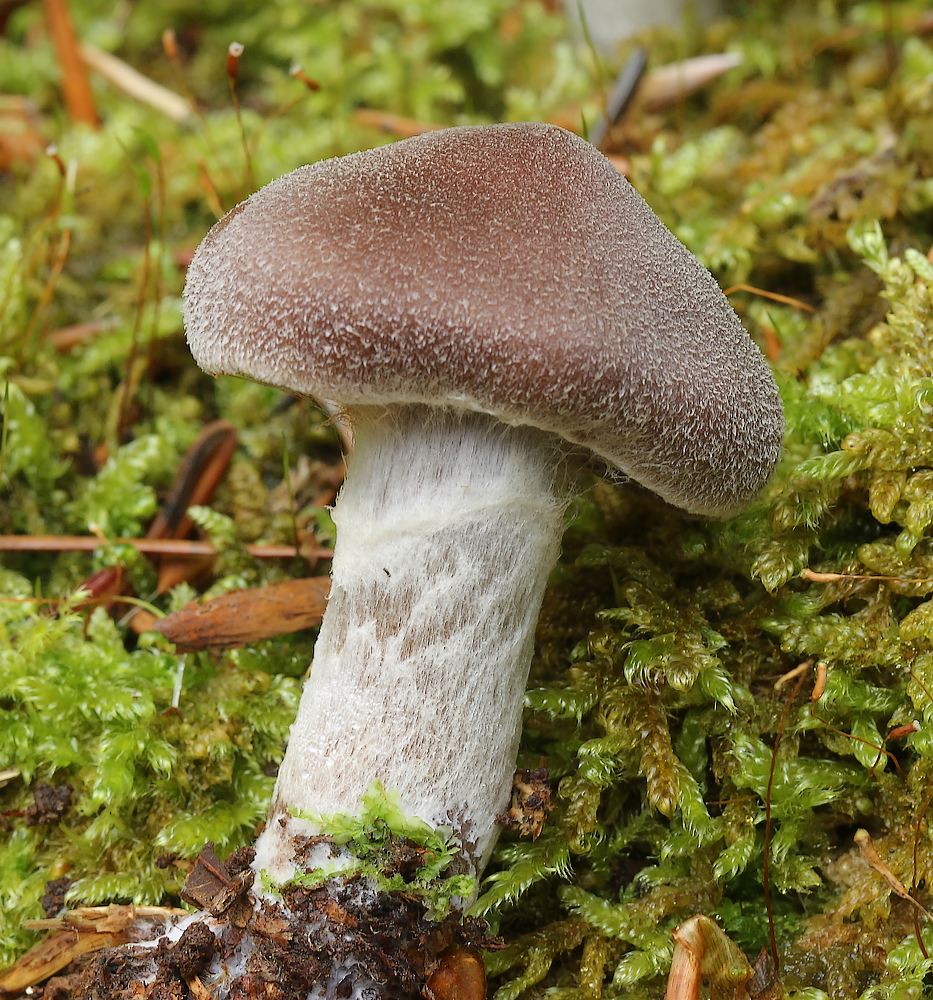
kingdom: Fungi
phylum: Basidiomycota
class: Agaricomycetes
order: Agaricales
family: Cortinariaceae
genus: Cortinarius
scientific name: Cortinarius
